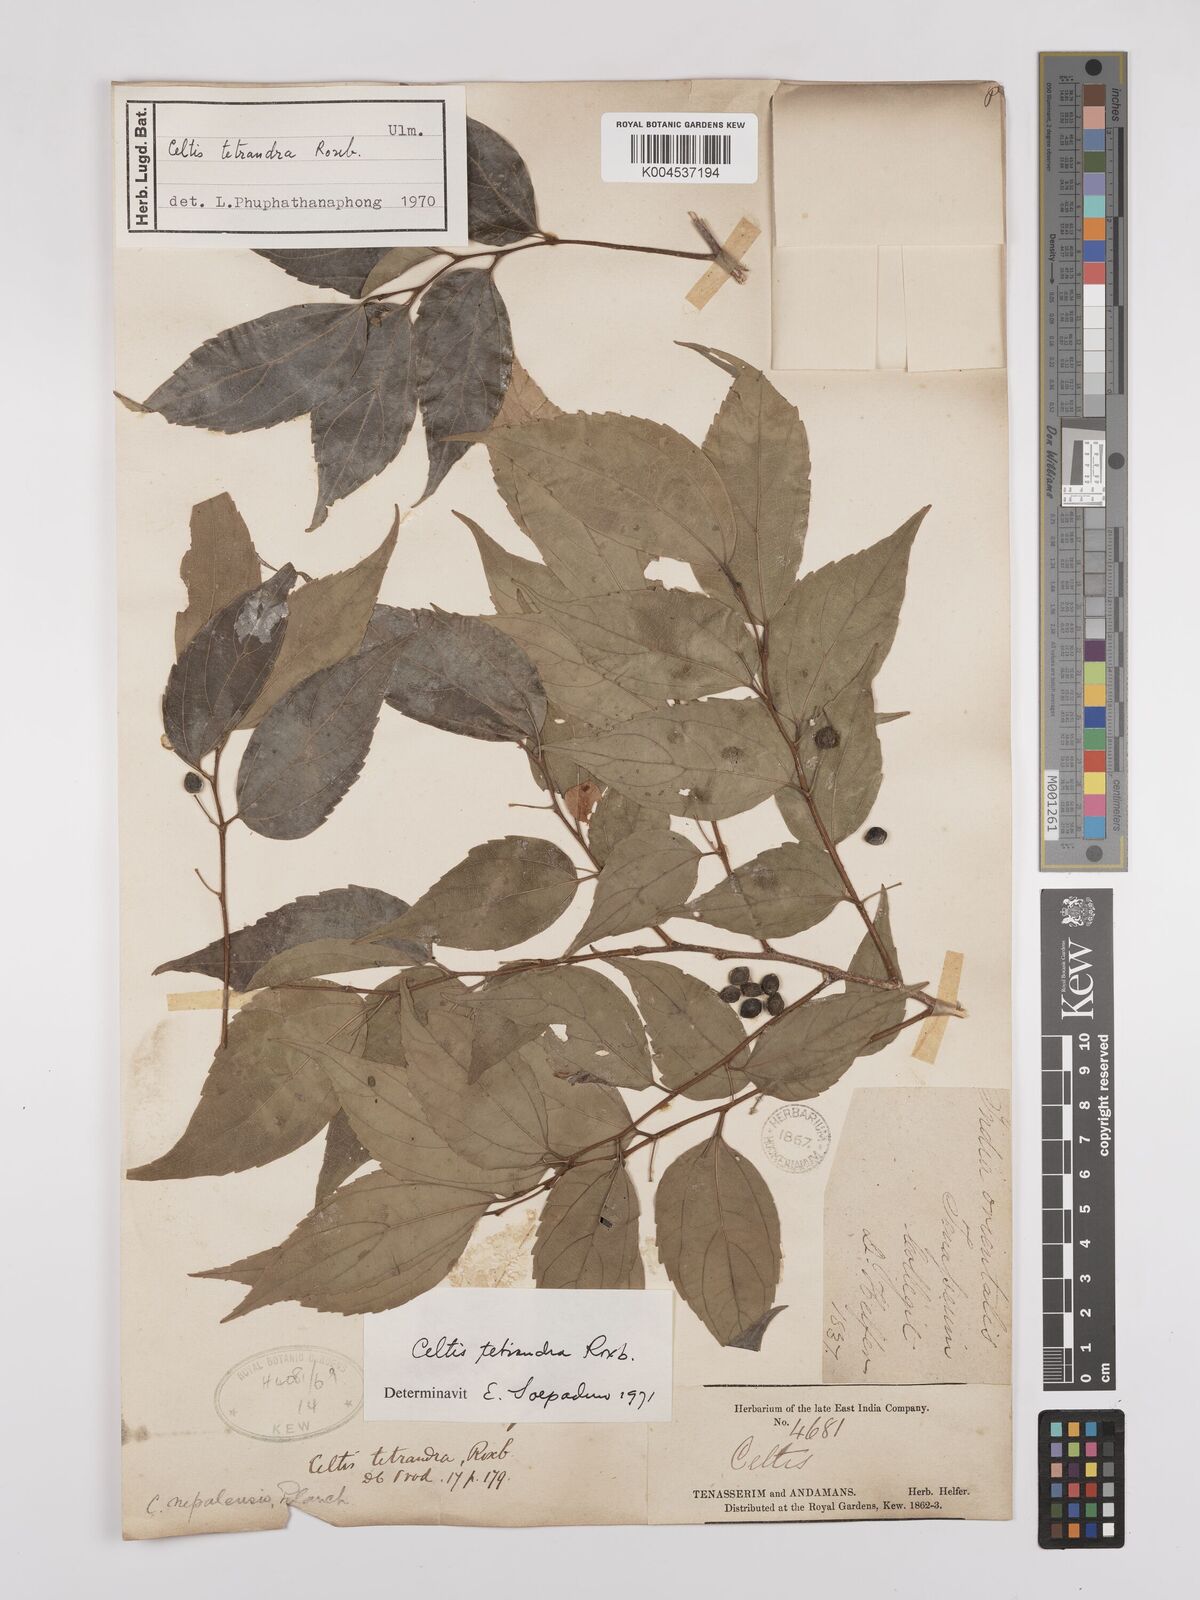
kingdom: Plantae
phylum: Tracheophyta
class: Magnoliopsida
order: Rosales
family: Cannabaceae
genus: Celtis
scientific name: Celtis tetrandra
